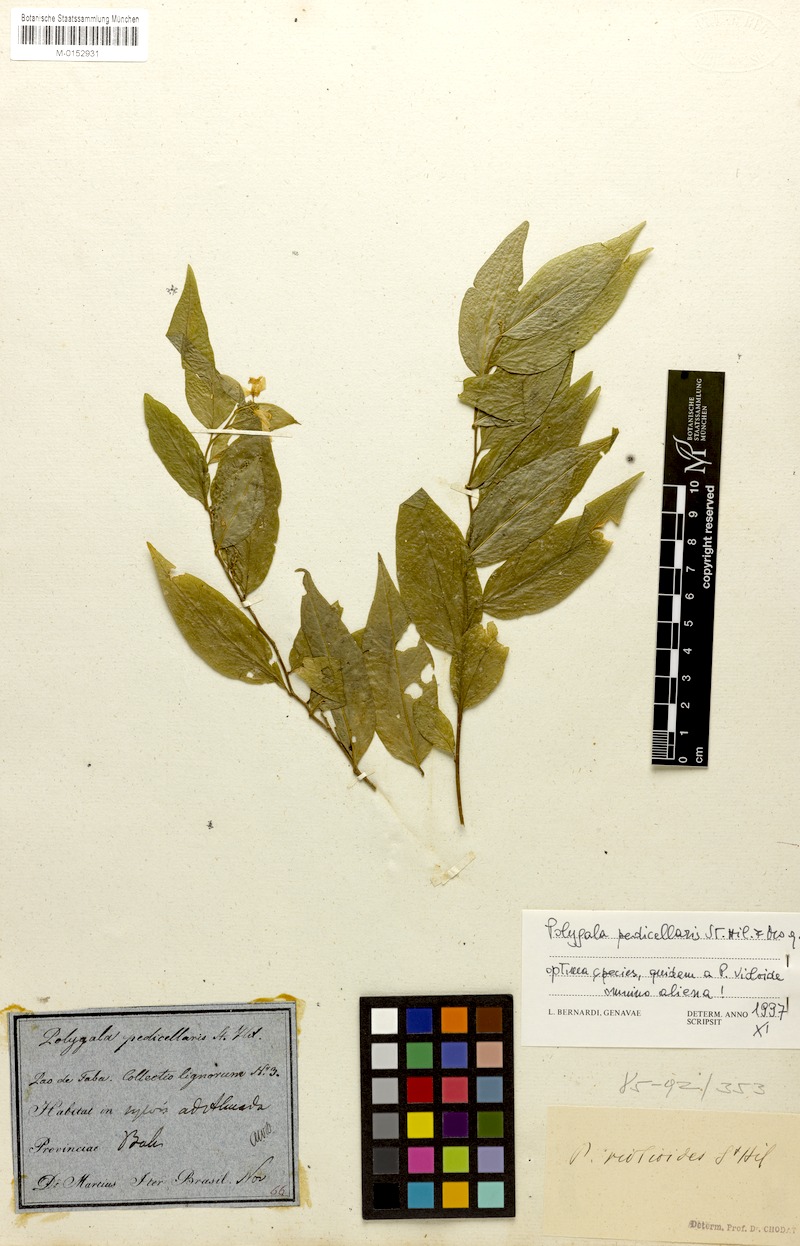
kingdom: Plantae
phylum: Tracheophyta
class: Magnoliopsida
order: Fabales
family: Polygalaceae
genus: Gymnospora
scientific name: Gymnospora blanchetii
